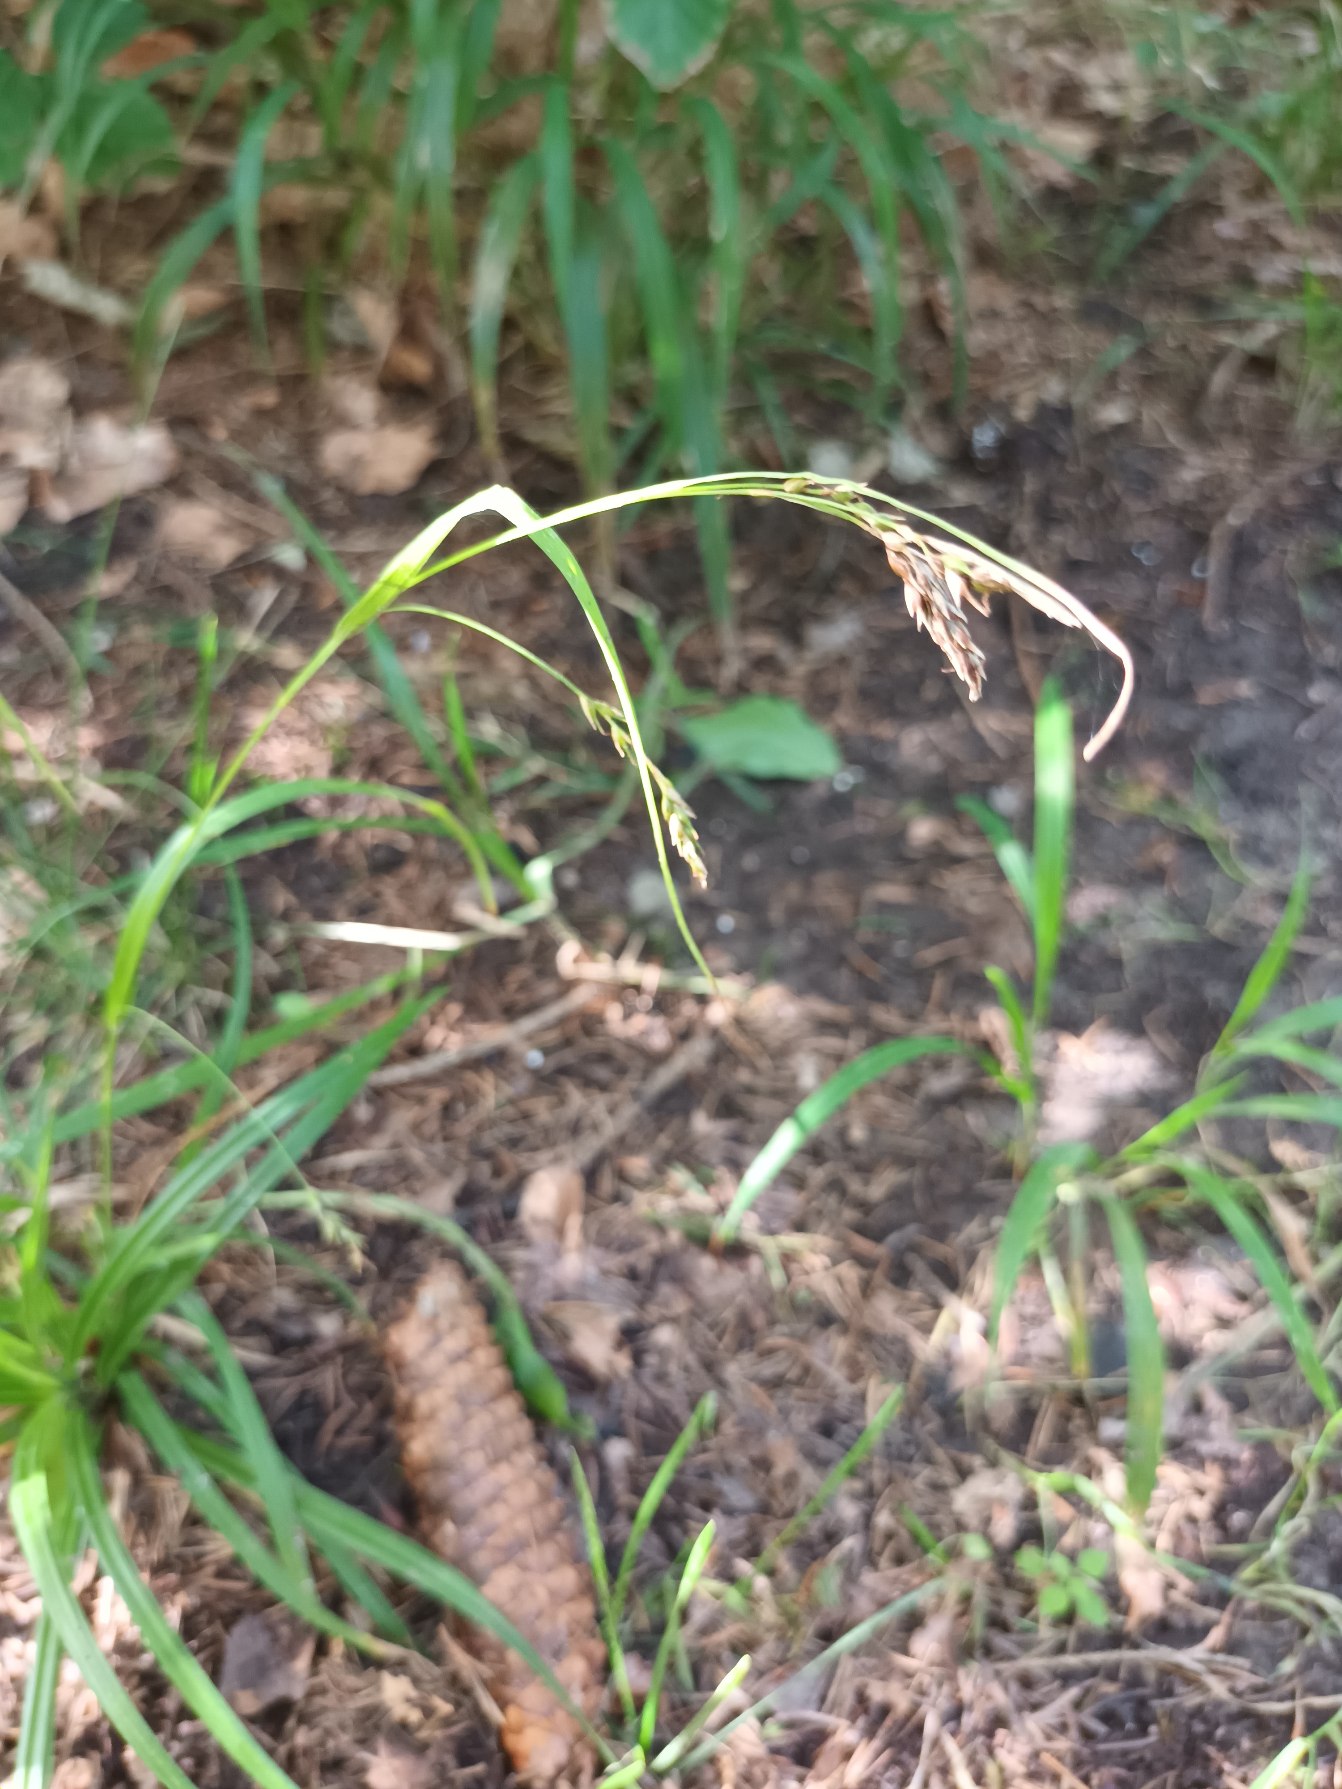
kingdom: Plantae
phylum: Tracheophyta
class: Liliopsida
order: Poales
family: Cyperaceae
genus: Carex
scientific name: Carex sylvatica
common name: Skov-star
